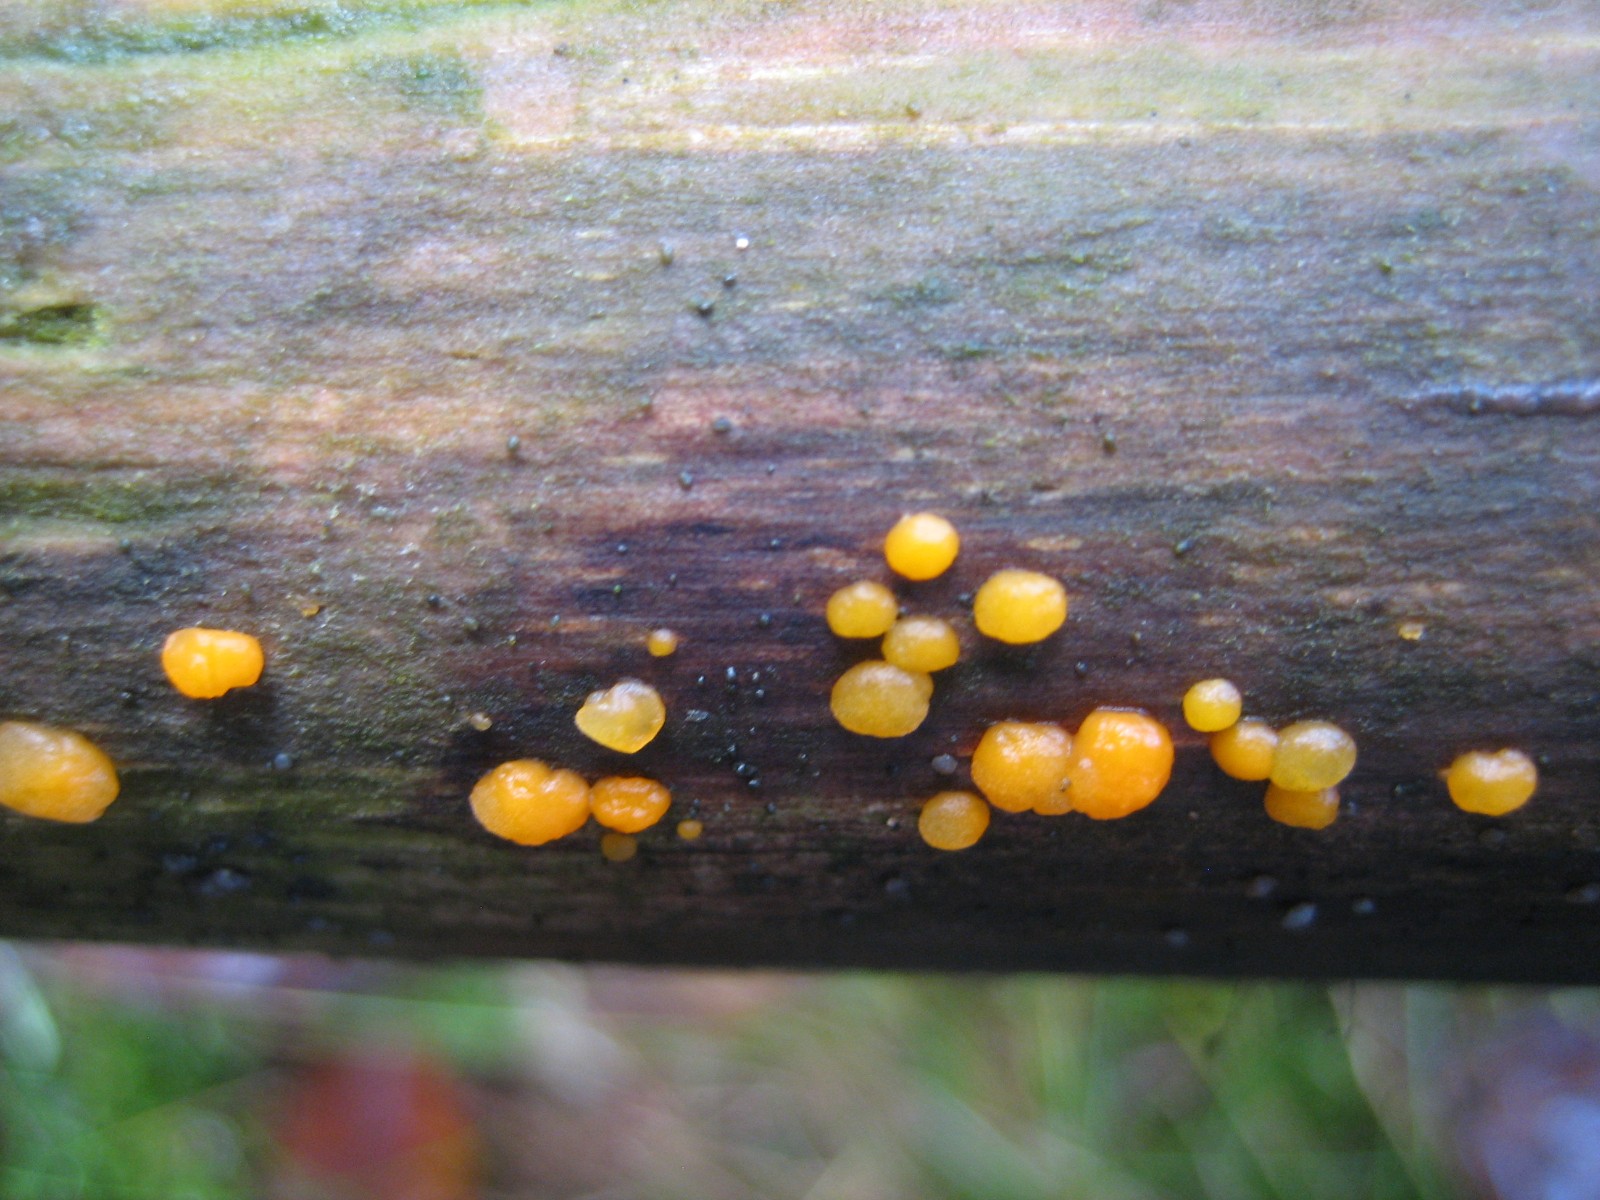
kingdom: Fungi
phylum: Basidiomycota
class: Dacrymycetes
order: Dacrymycetales
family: Dacrymycetaceae
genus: Dacrymyces
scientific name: Dacrymyces stillatus
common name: almindelig tåresvamp
